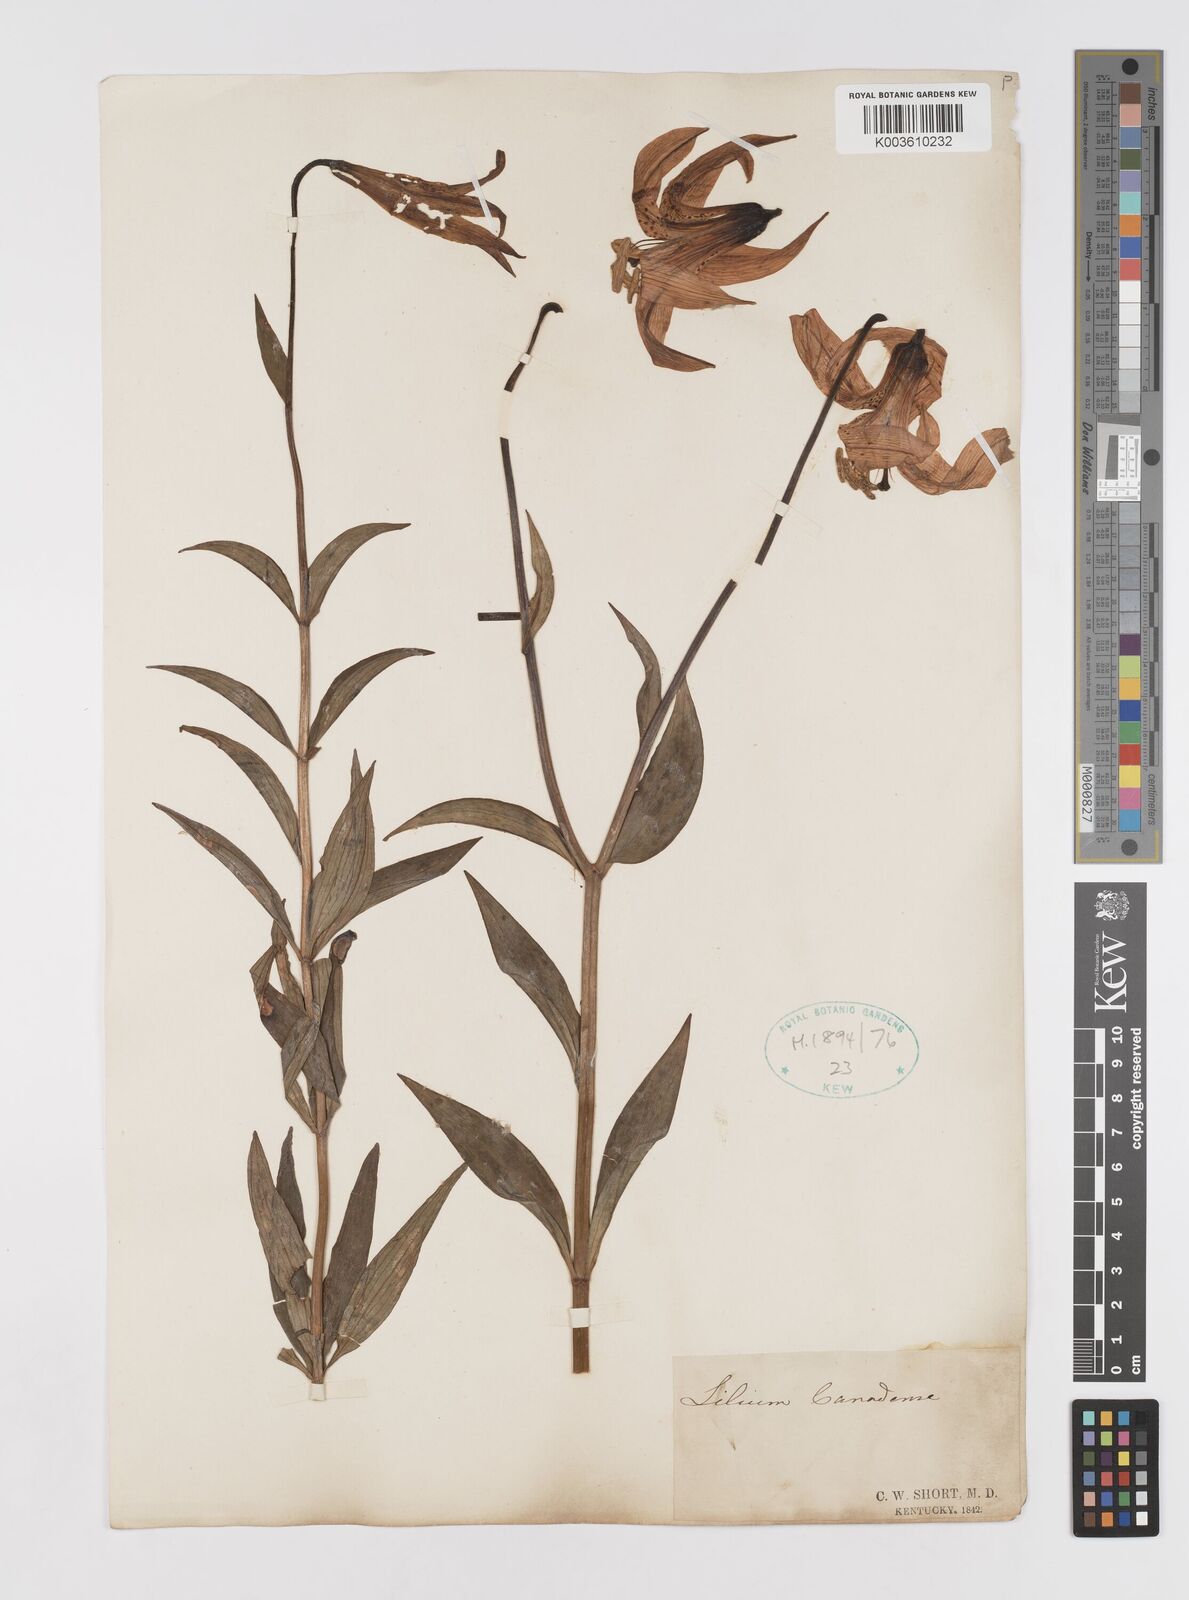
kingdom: Plantae
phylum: Tracheophyta
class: Liliopsida
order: Liliales
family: Liliaceae
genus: Lilium
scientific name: Lilium canadense
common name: Canada lily
